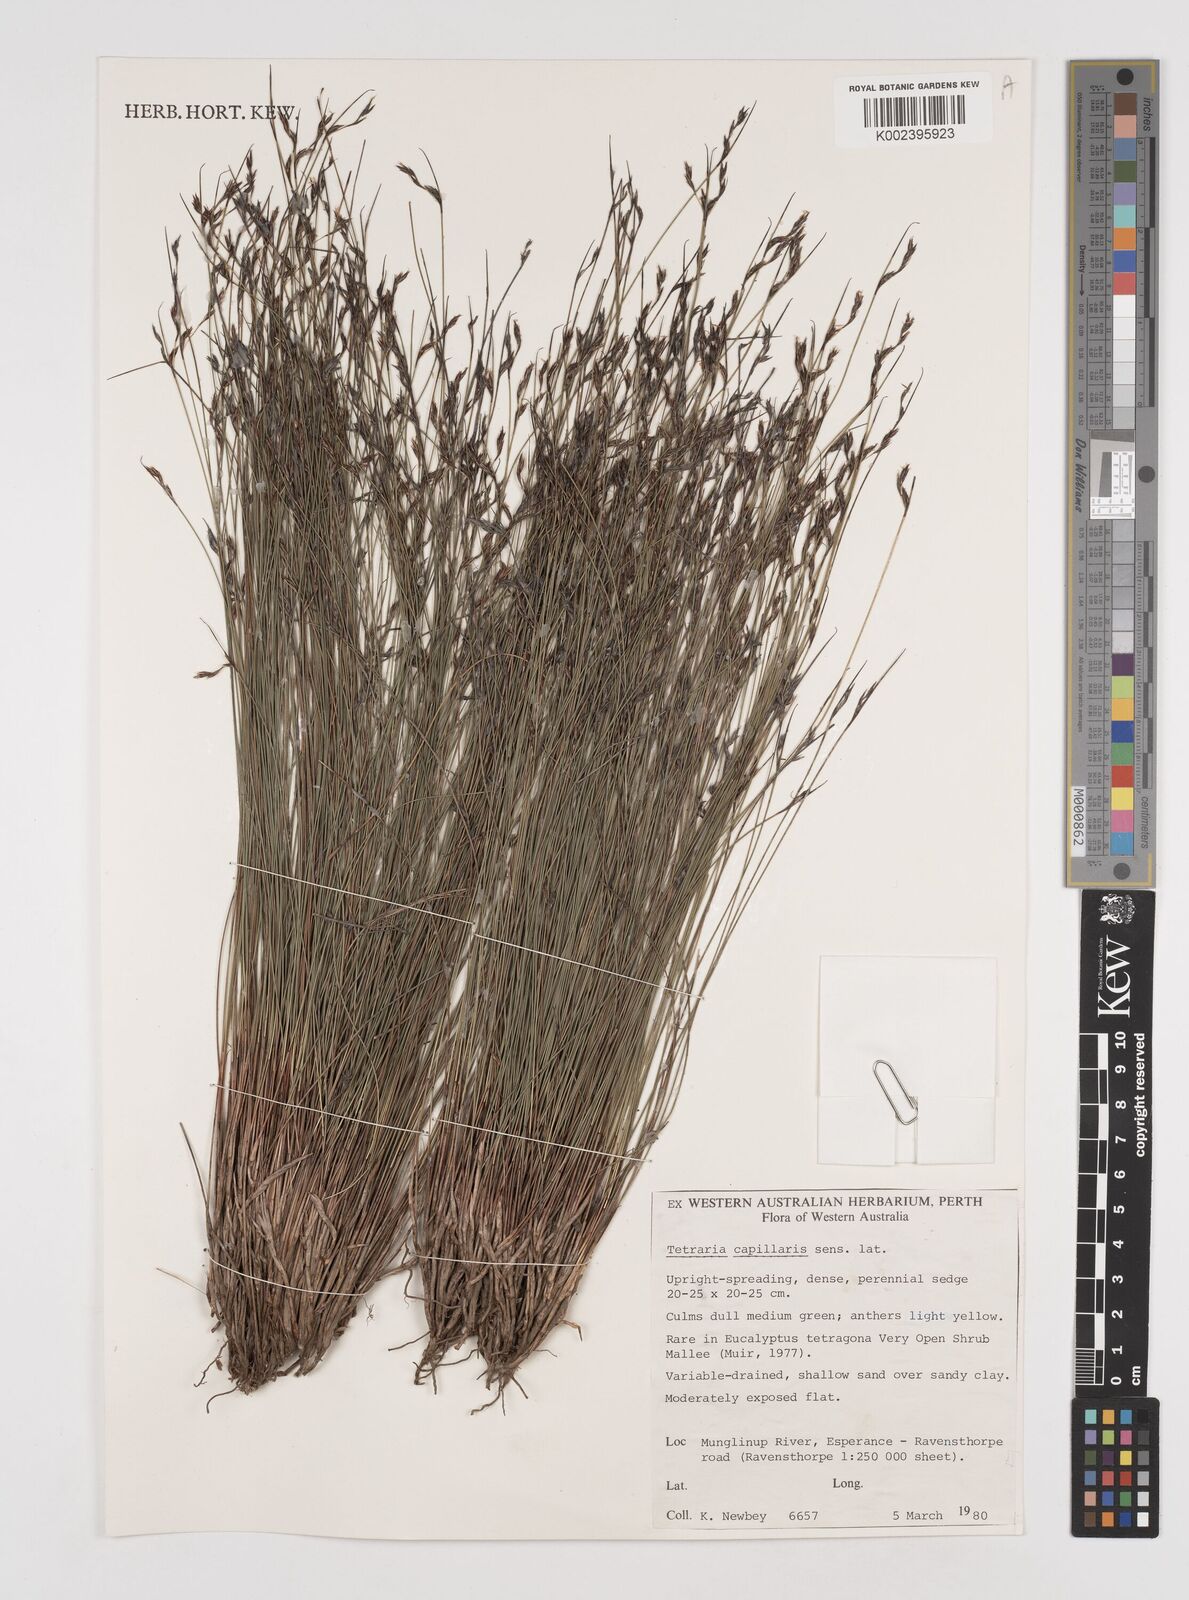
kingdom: Plantae
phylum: Tracheophyta
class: Liliopsida
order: Poales
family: Cyperaceae
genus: Tetraria
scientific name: Tetraria capillaris
